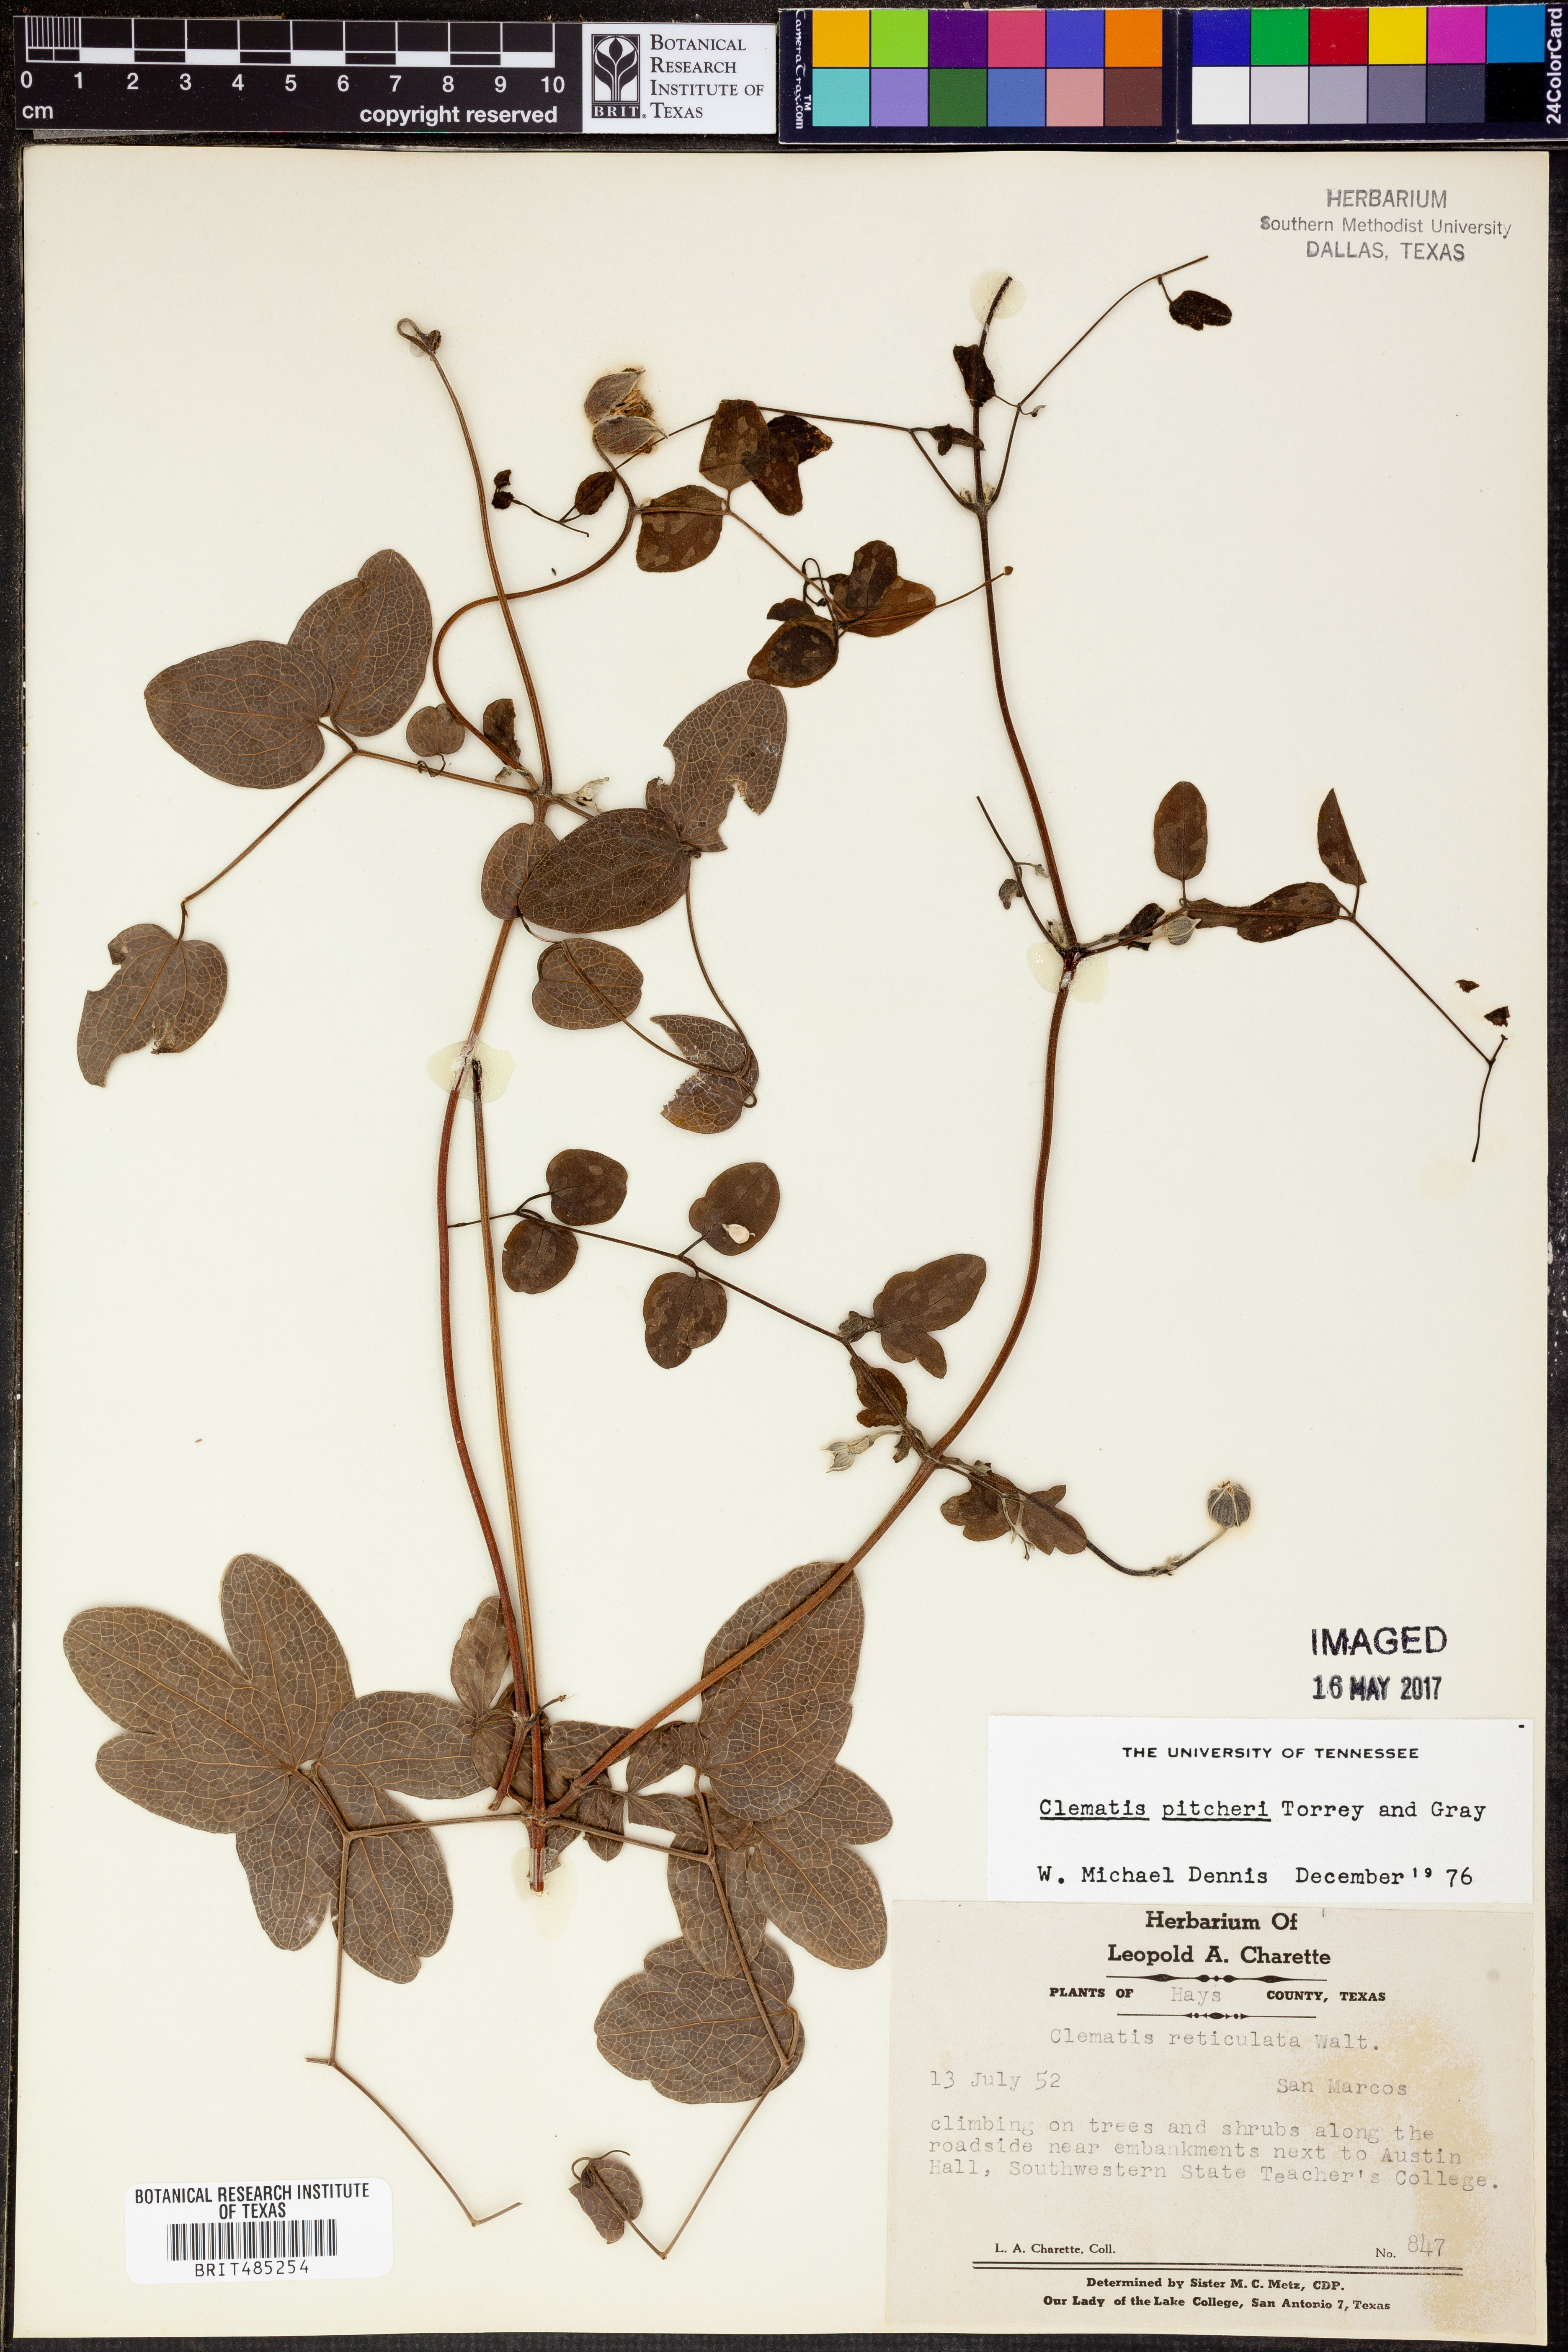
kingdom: Plantae
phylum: Tracheophyta
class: Magnoliopsida
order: Ranunculales
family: Ranunculaceae
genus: Clematis
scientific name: Clematis reticulata
